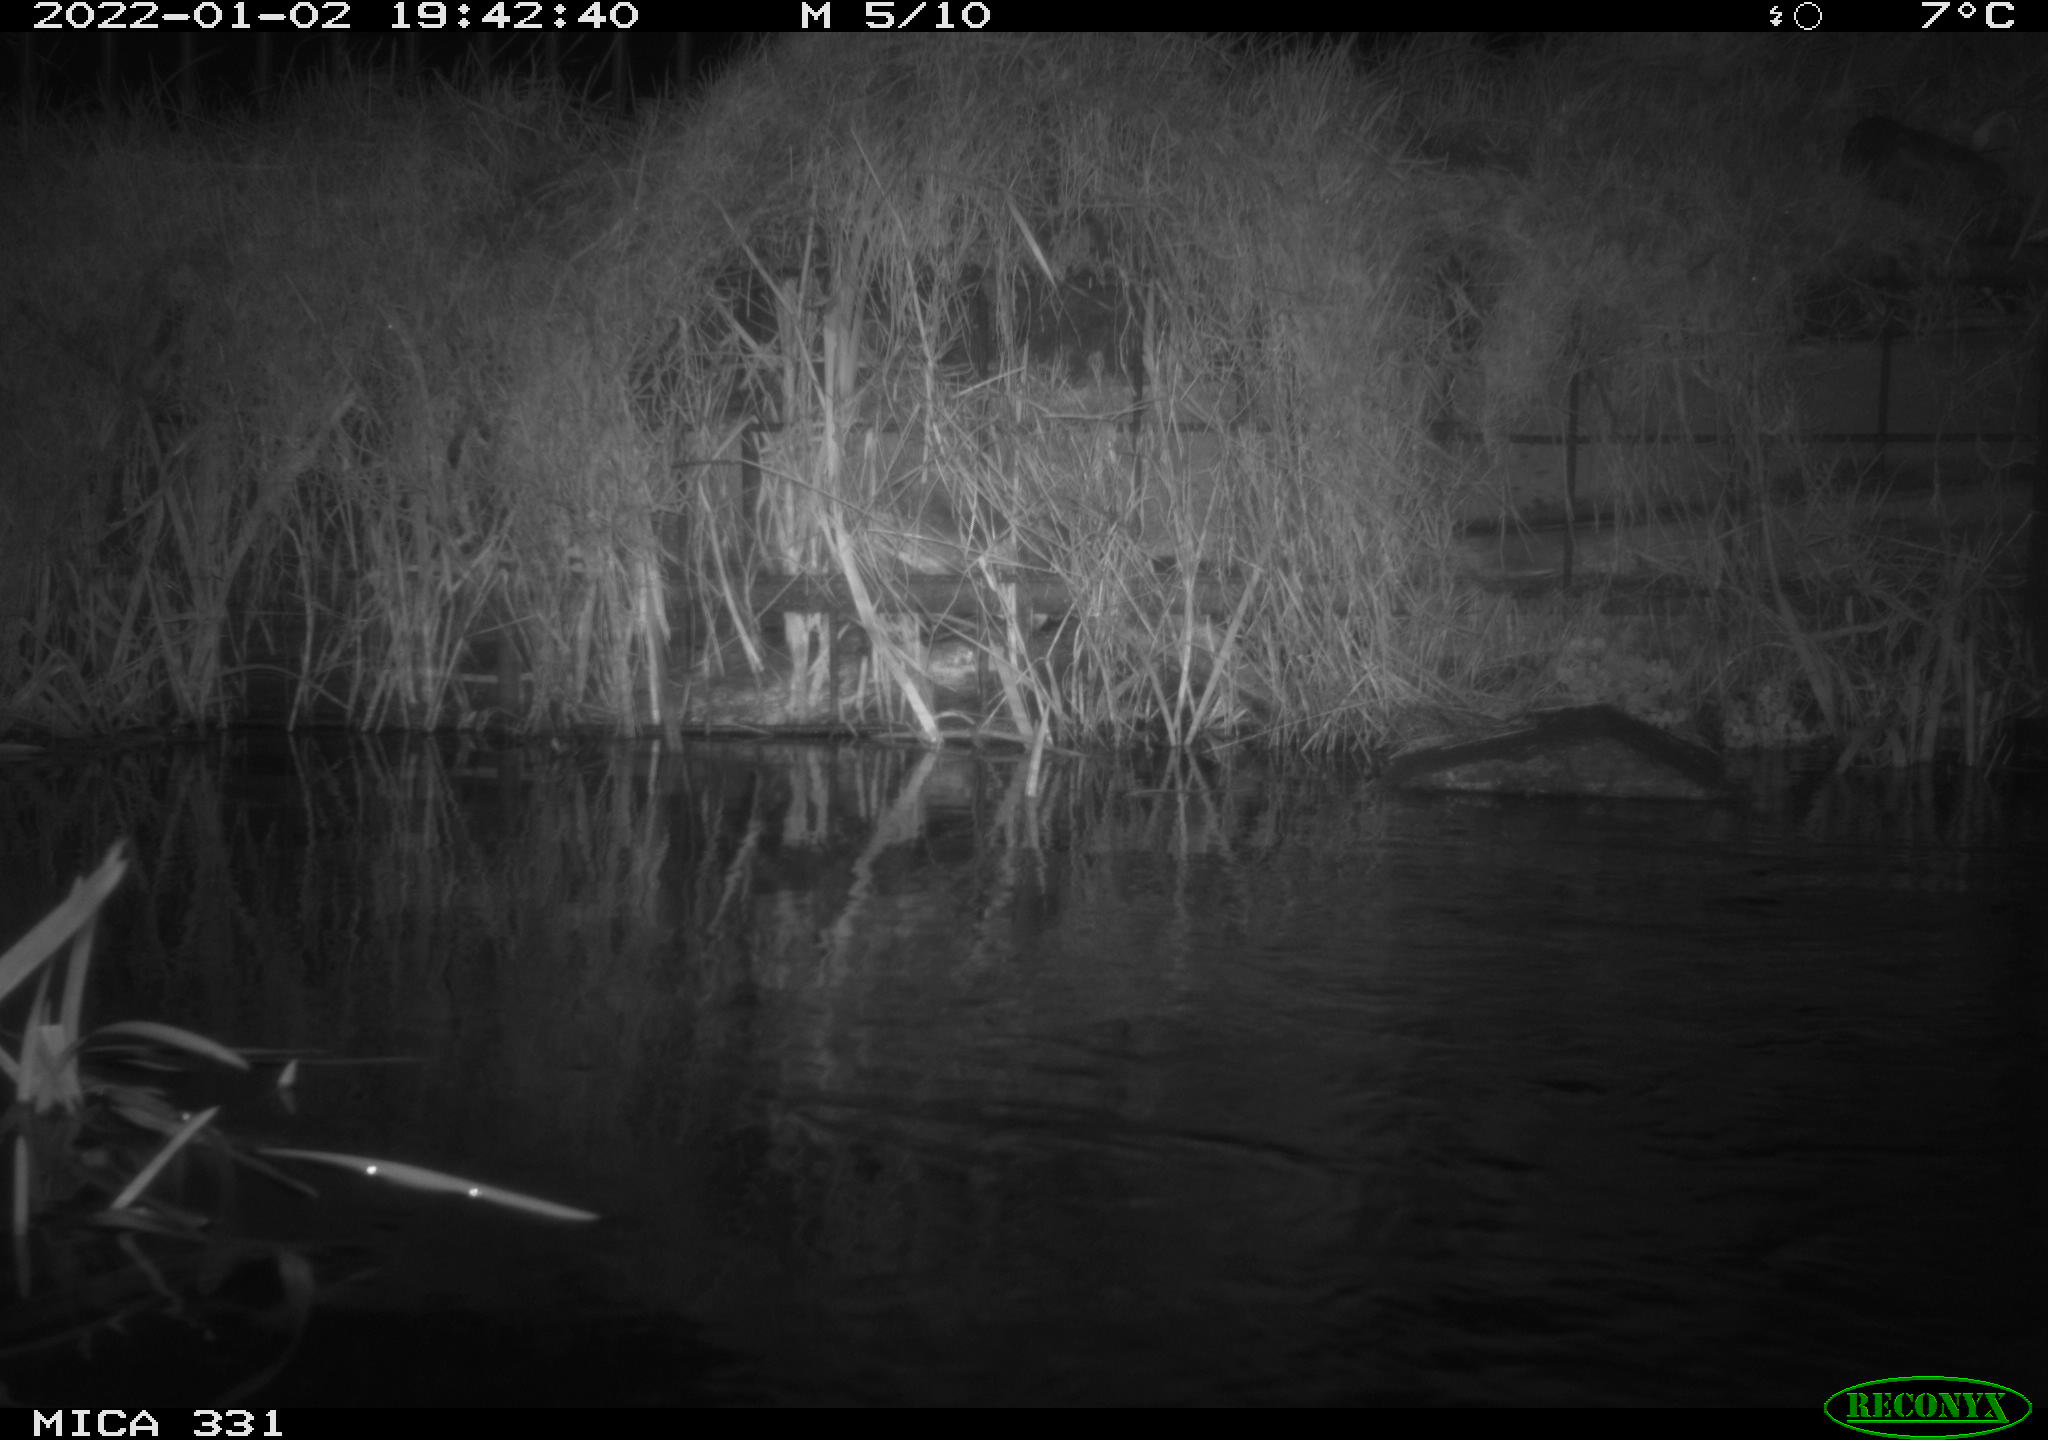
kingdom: Animalia
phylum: Chordata
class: Mammalia
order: Rodentia
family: Muridae
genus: Rattus
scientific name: Rattus norvegicus
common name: Brown rat
